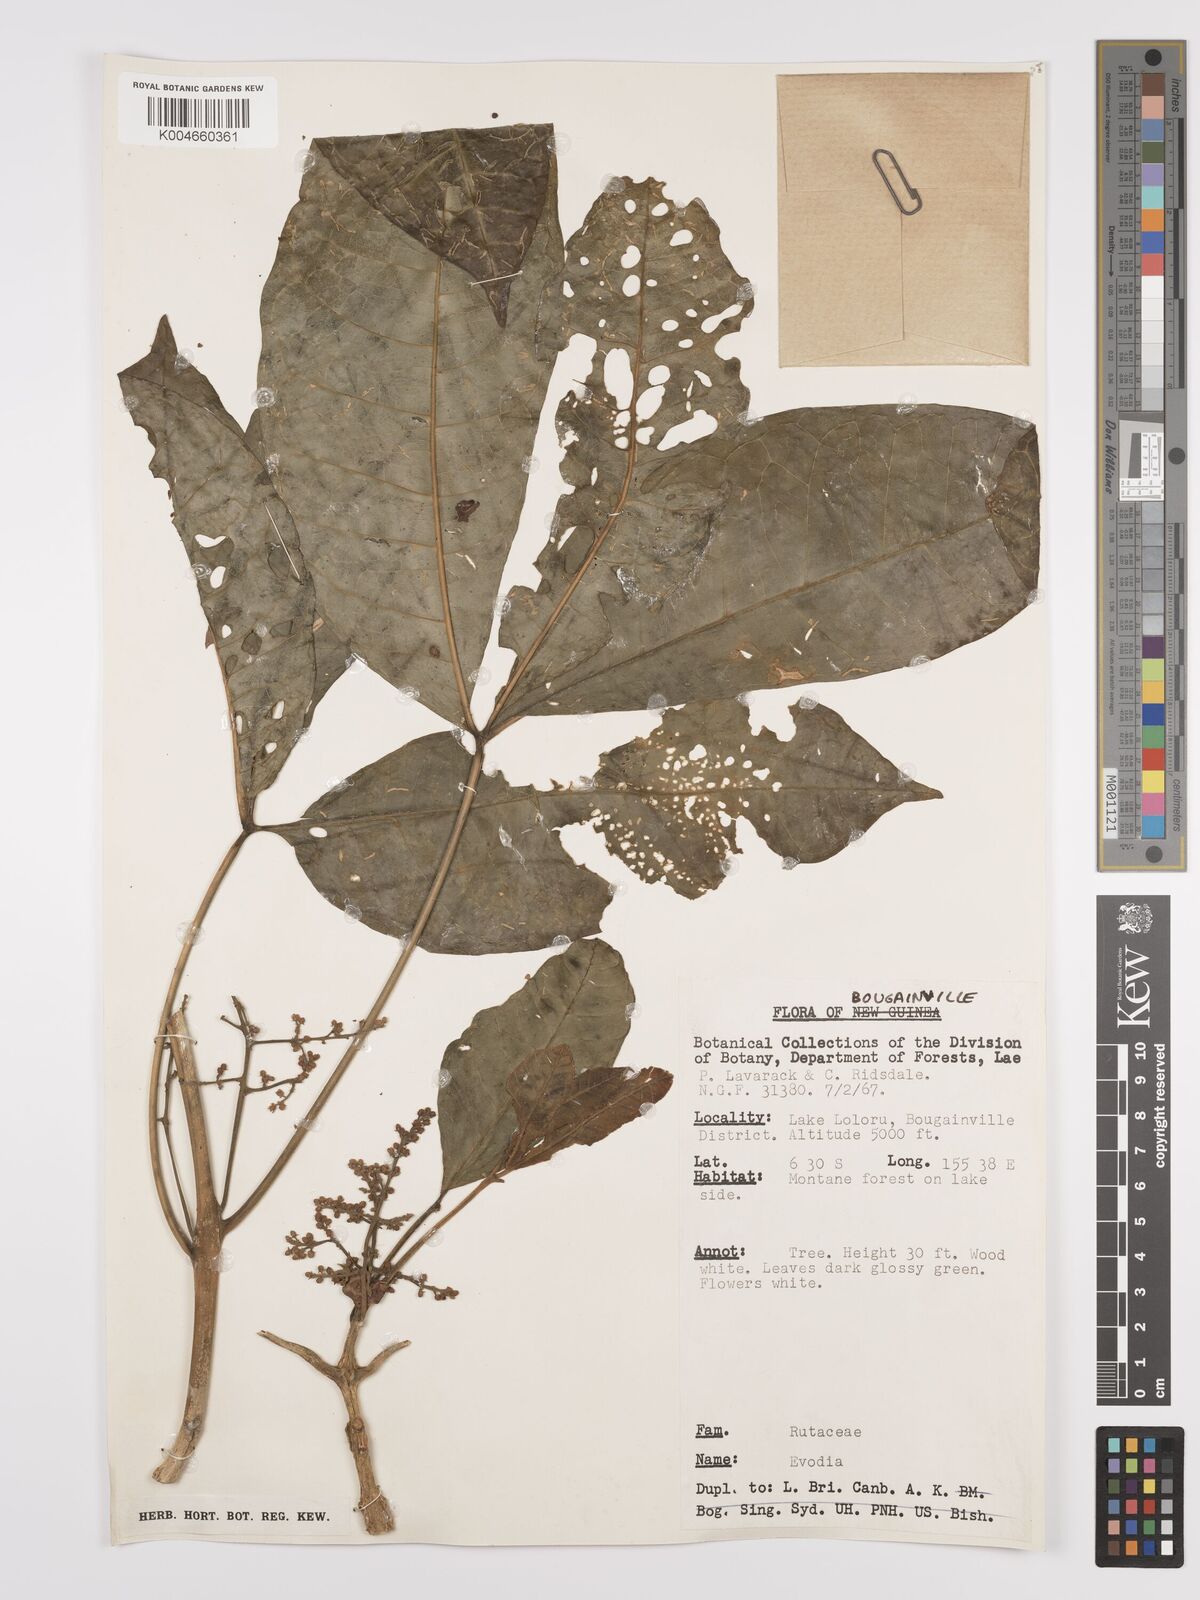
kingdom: Plantae
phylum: Tracheophyta
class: Magnoliopsida
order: Sapindales
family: Rutaceae
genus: Euodia
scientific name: Euodia
